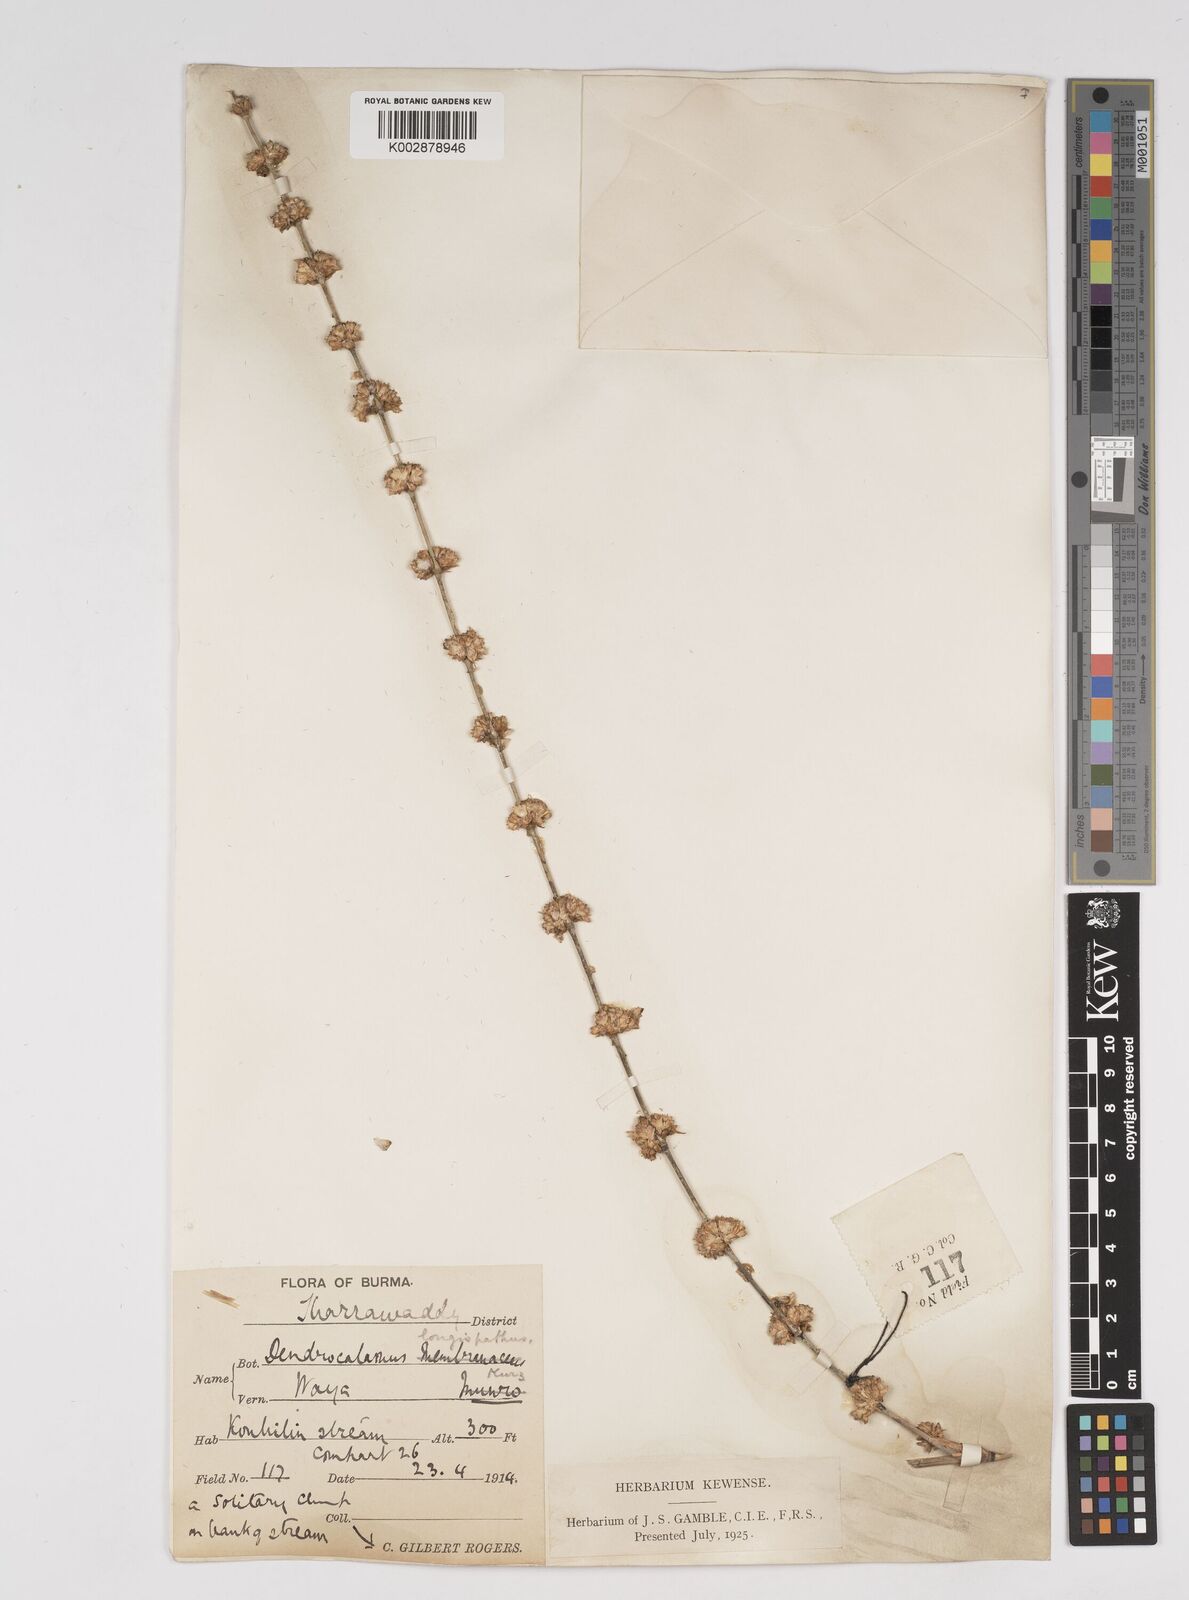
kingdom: Plantae
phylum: Tracheophyta
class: Liliopsida
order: Poales
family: Poaceae
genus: Dendrocalamus
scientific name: Dendrocalamus longispathus
